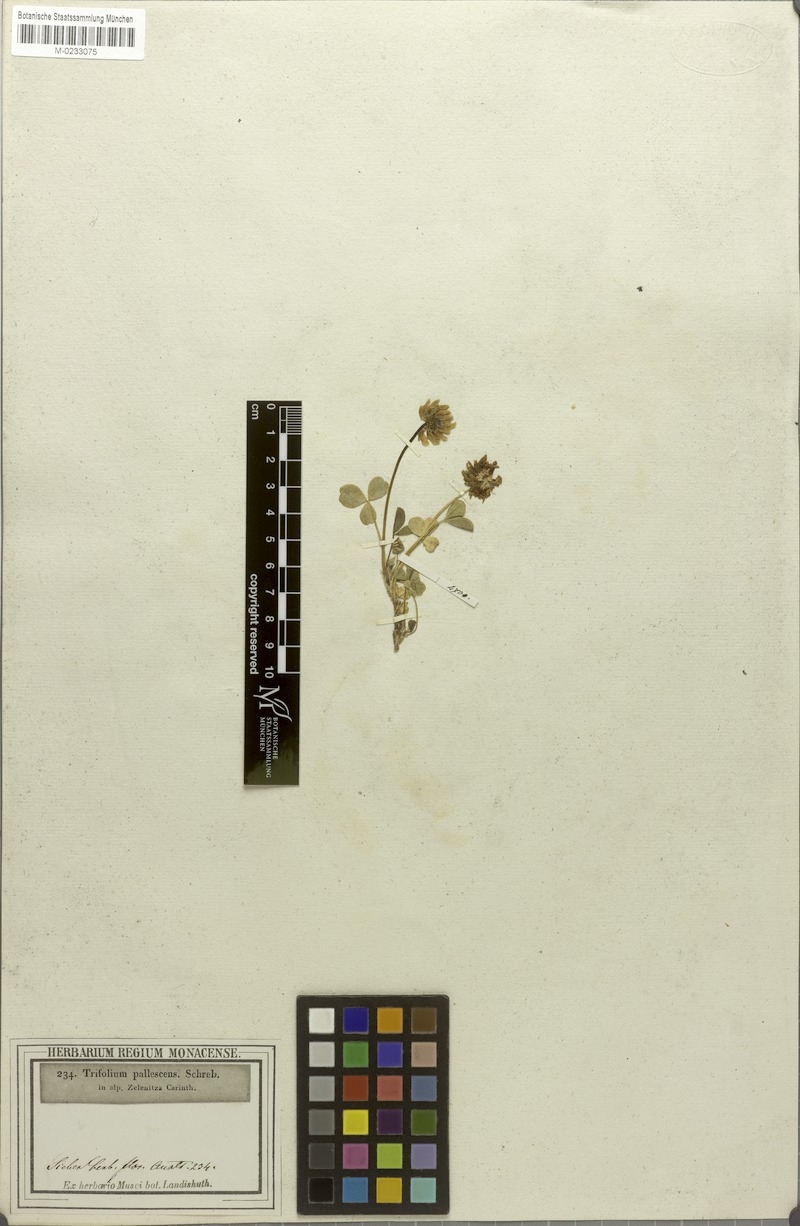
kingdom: Plantae
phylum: Tracheophyta
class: Magnoliopsida
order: Fabales
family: Fabaceae
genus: Trifolium
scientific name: Trifolium pallescens
